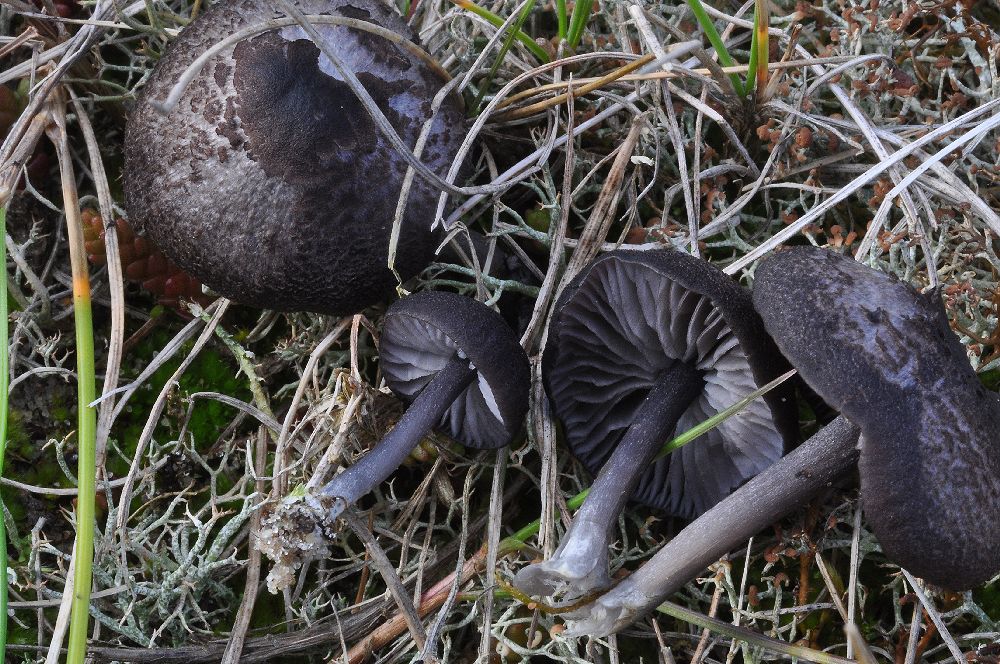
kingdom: Fungi
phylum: Basidiomycota
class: Agaricomycetes
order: Agaricales
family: Entolomataceae
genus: Entoloma
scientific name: Entoloma
